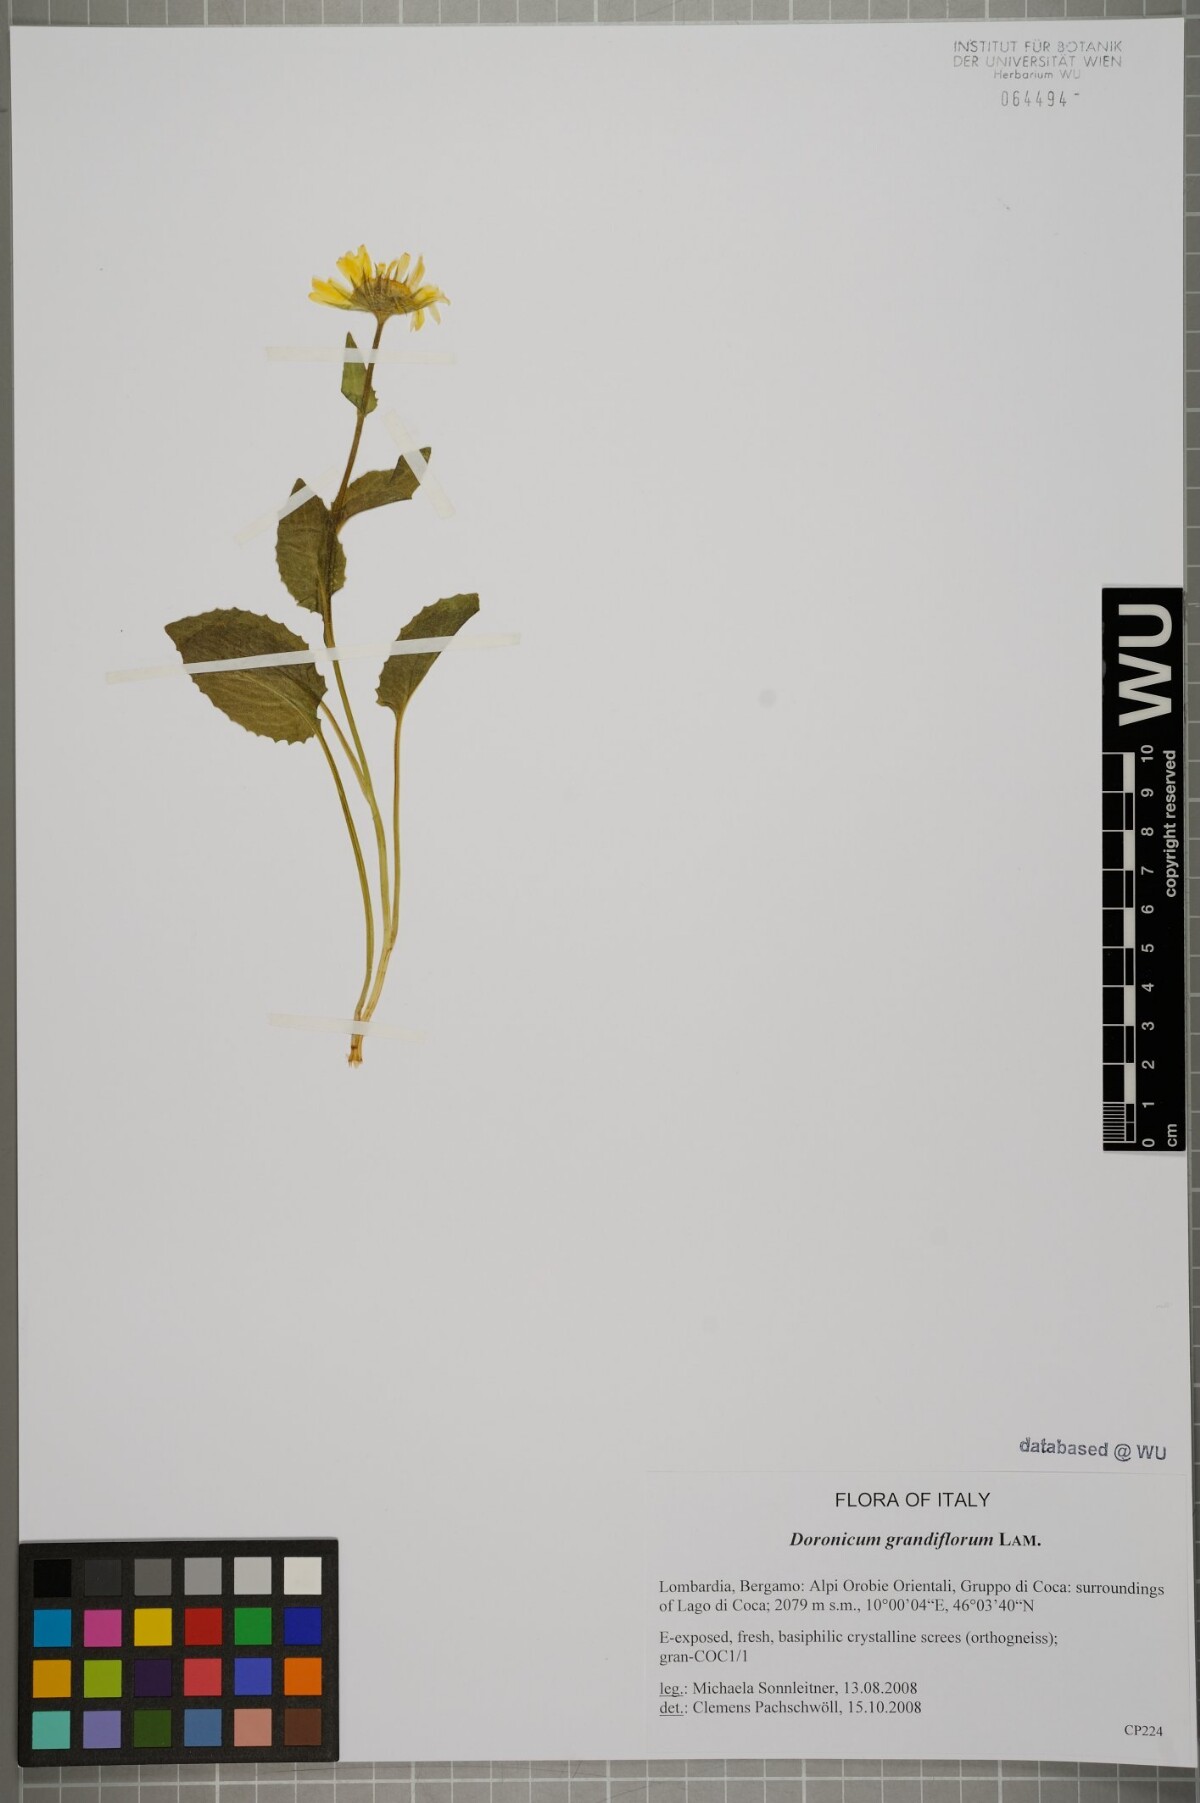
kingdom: Plantae
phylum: Tracheophyta
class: Magnoliopsida
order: Asterales
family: Asteraceae
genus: Doronicum
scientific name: Doronicum grandiflorum
